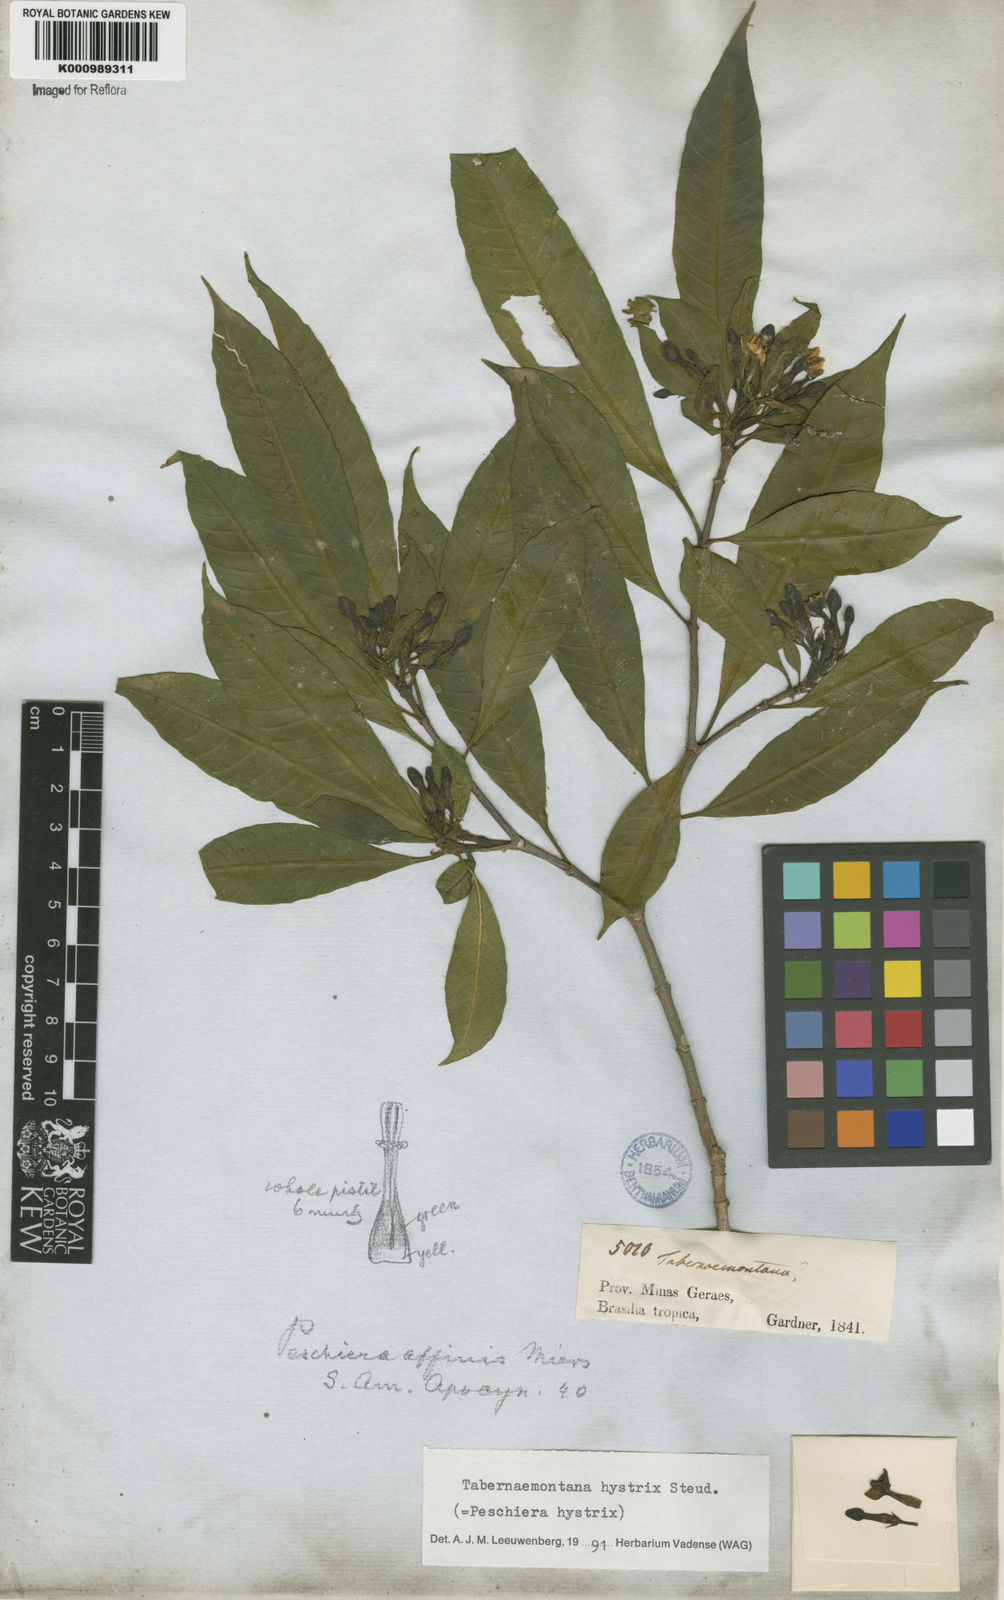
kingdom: Plantae
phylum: Tracheophyta
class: Magnoliopsida
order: Gentianales
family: Apocynaceae
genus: Tabernaemontana
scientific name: Tabernaemontana hystrix
